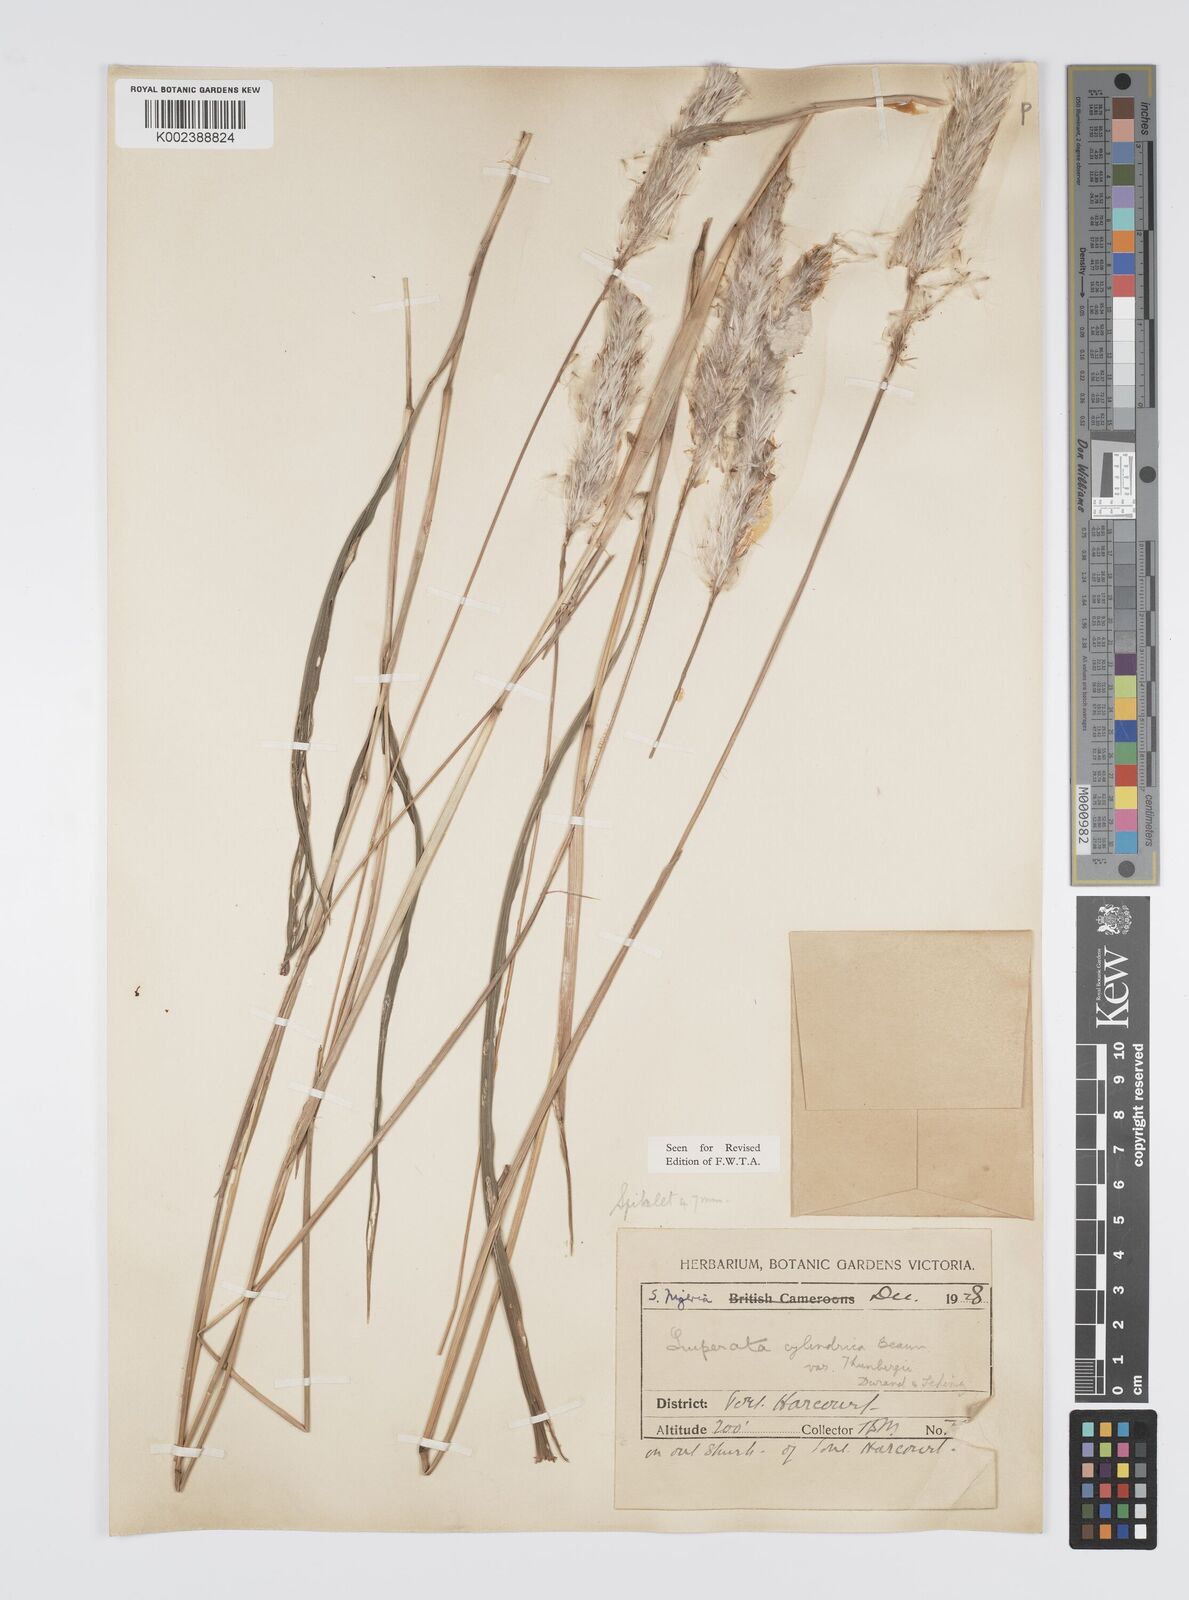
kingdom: Plantae
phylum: Tracheophyta
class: Liliopsida
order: Poales
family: Poaceae
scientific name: Poaceae
